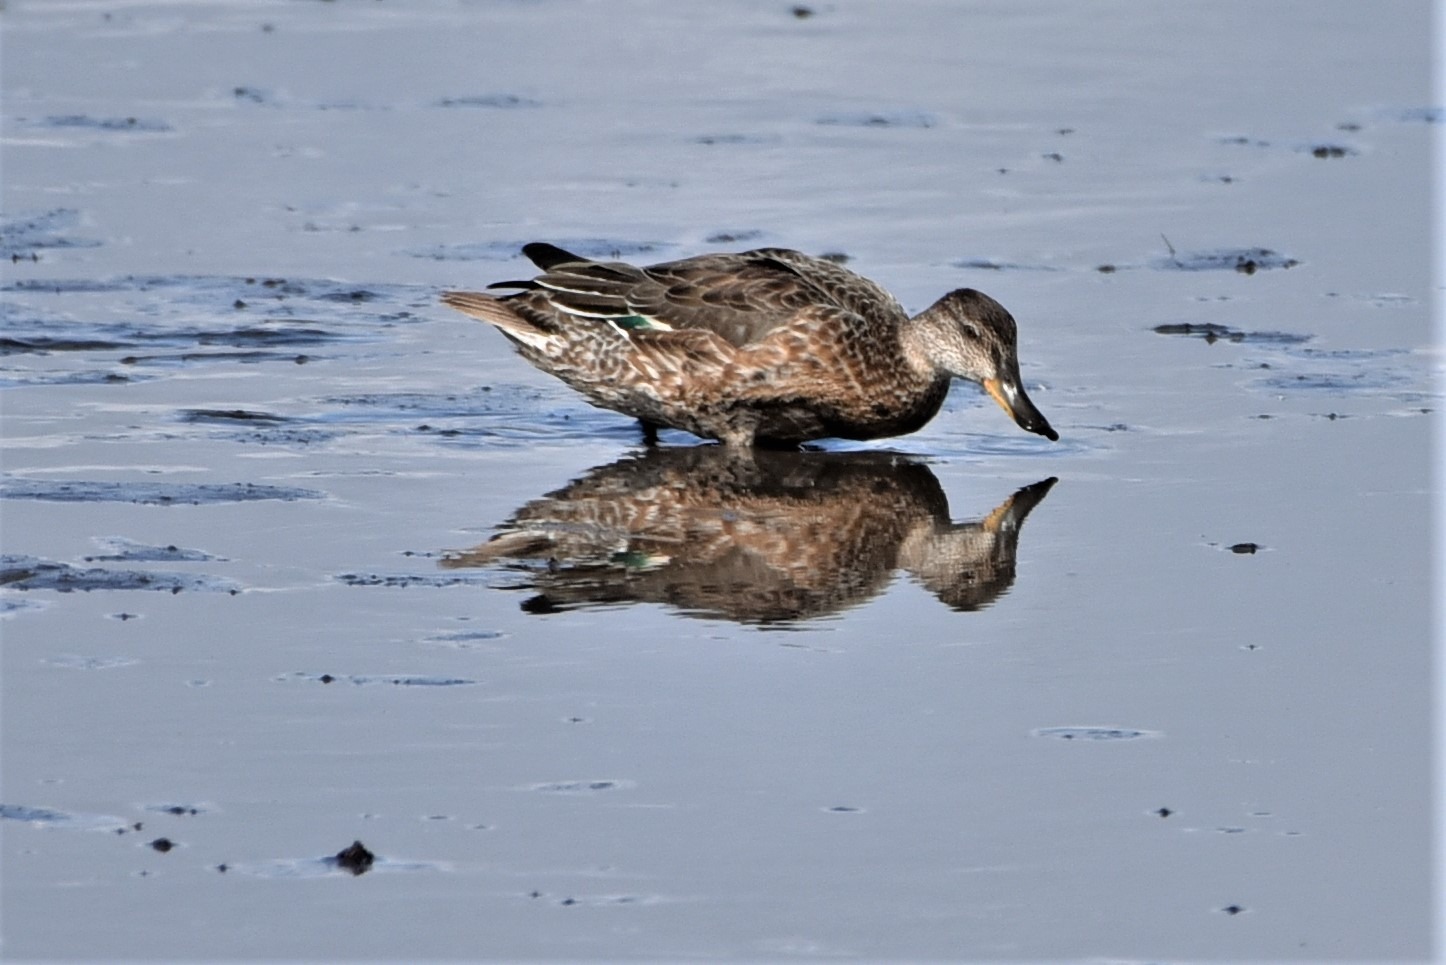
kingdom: Animalia
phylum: Chordata
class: Aves
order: Anseriformes
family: Anatidae
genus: Anas
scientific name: Anas crecca
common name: Krikand
